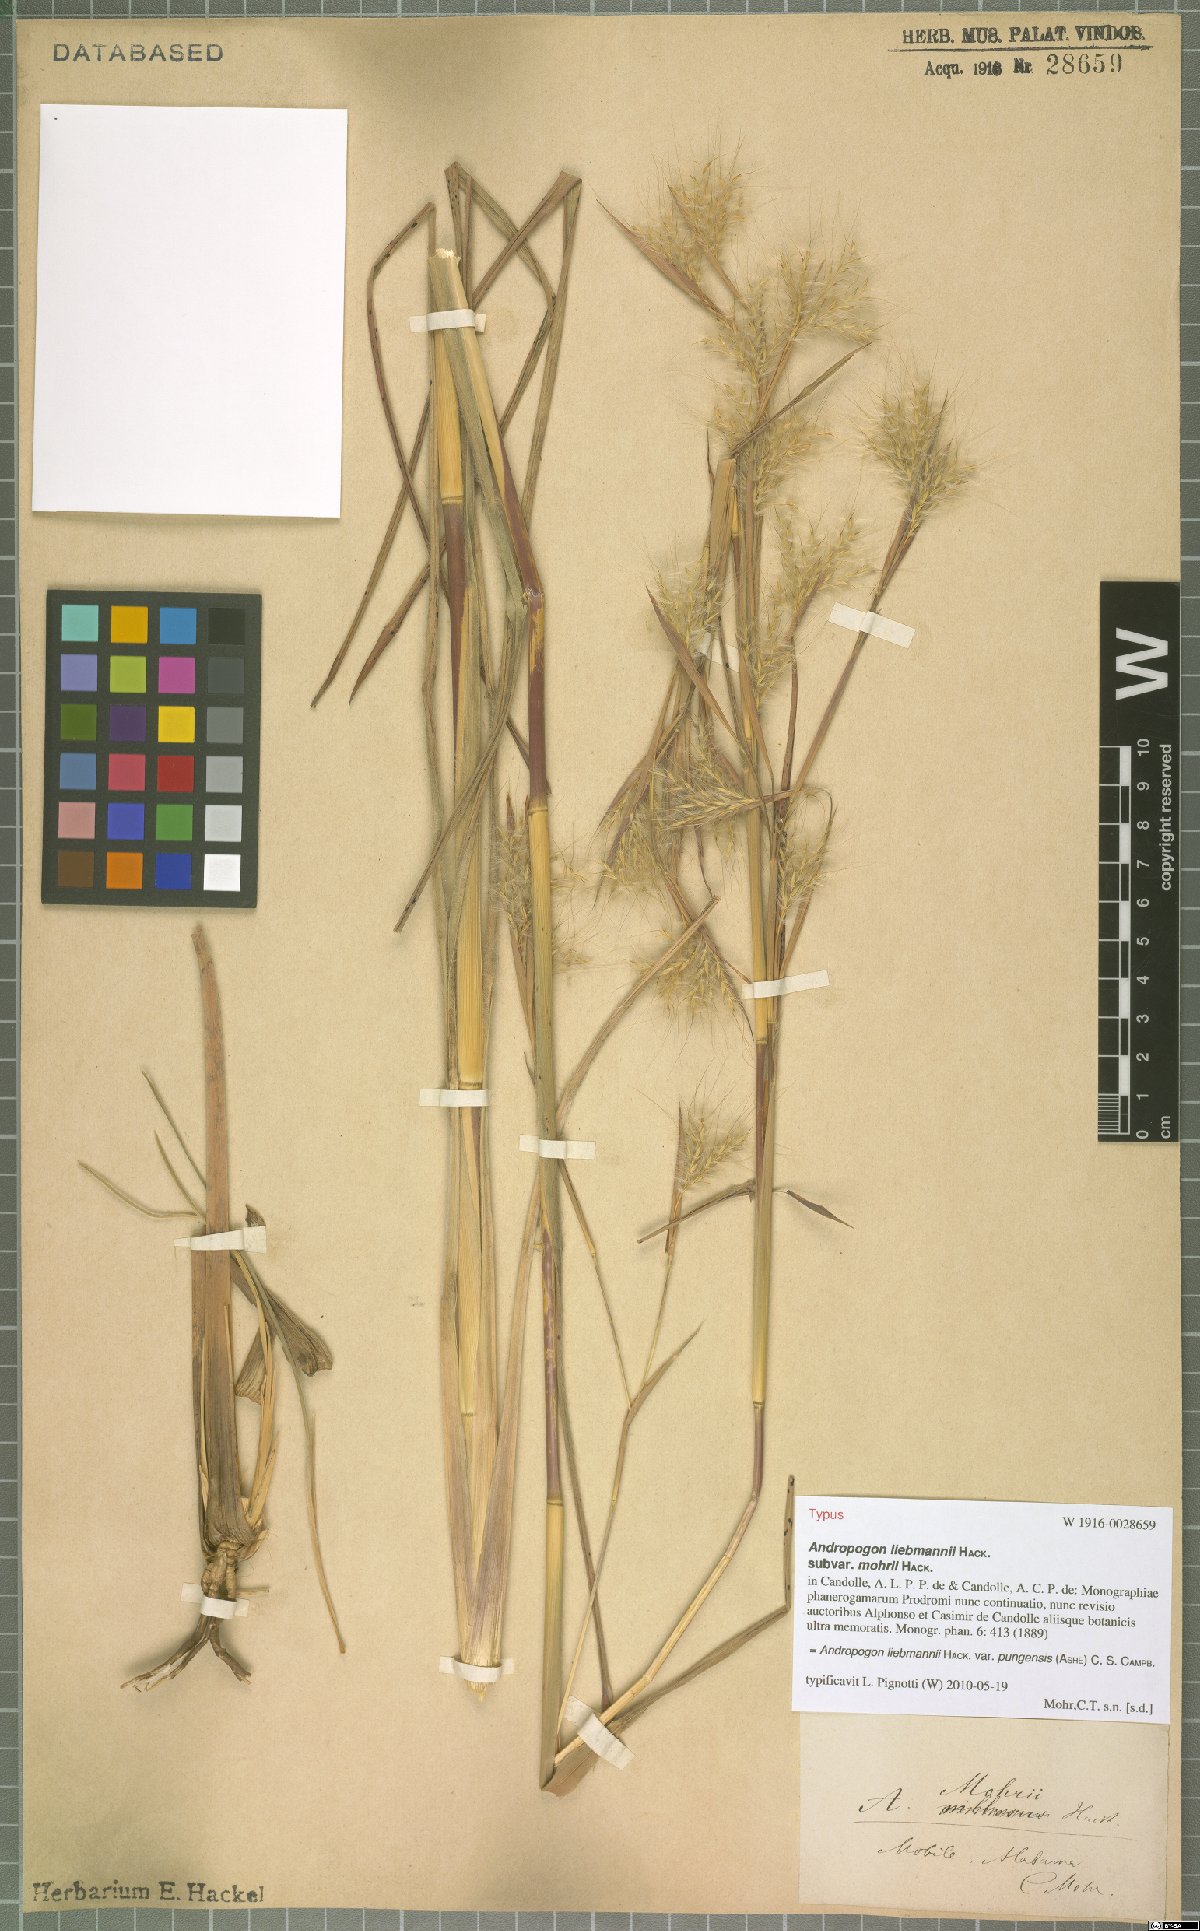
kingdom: Plantae
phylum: Tracheophyta
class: Liliopsida
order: Poales
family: Poaceae
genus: Andropogon
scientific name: Andropogon liebmannii
